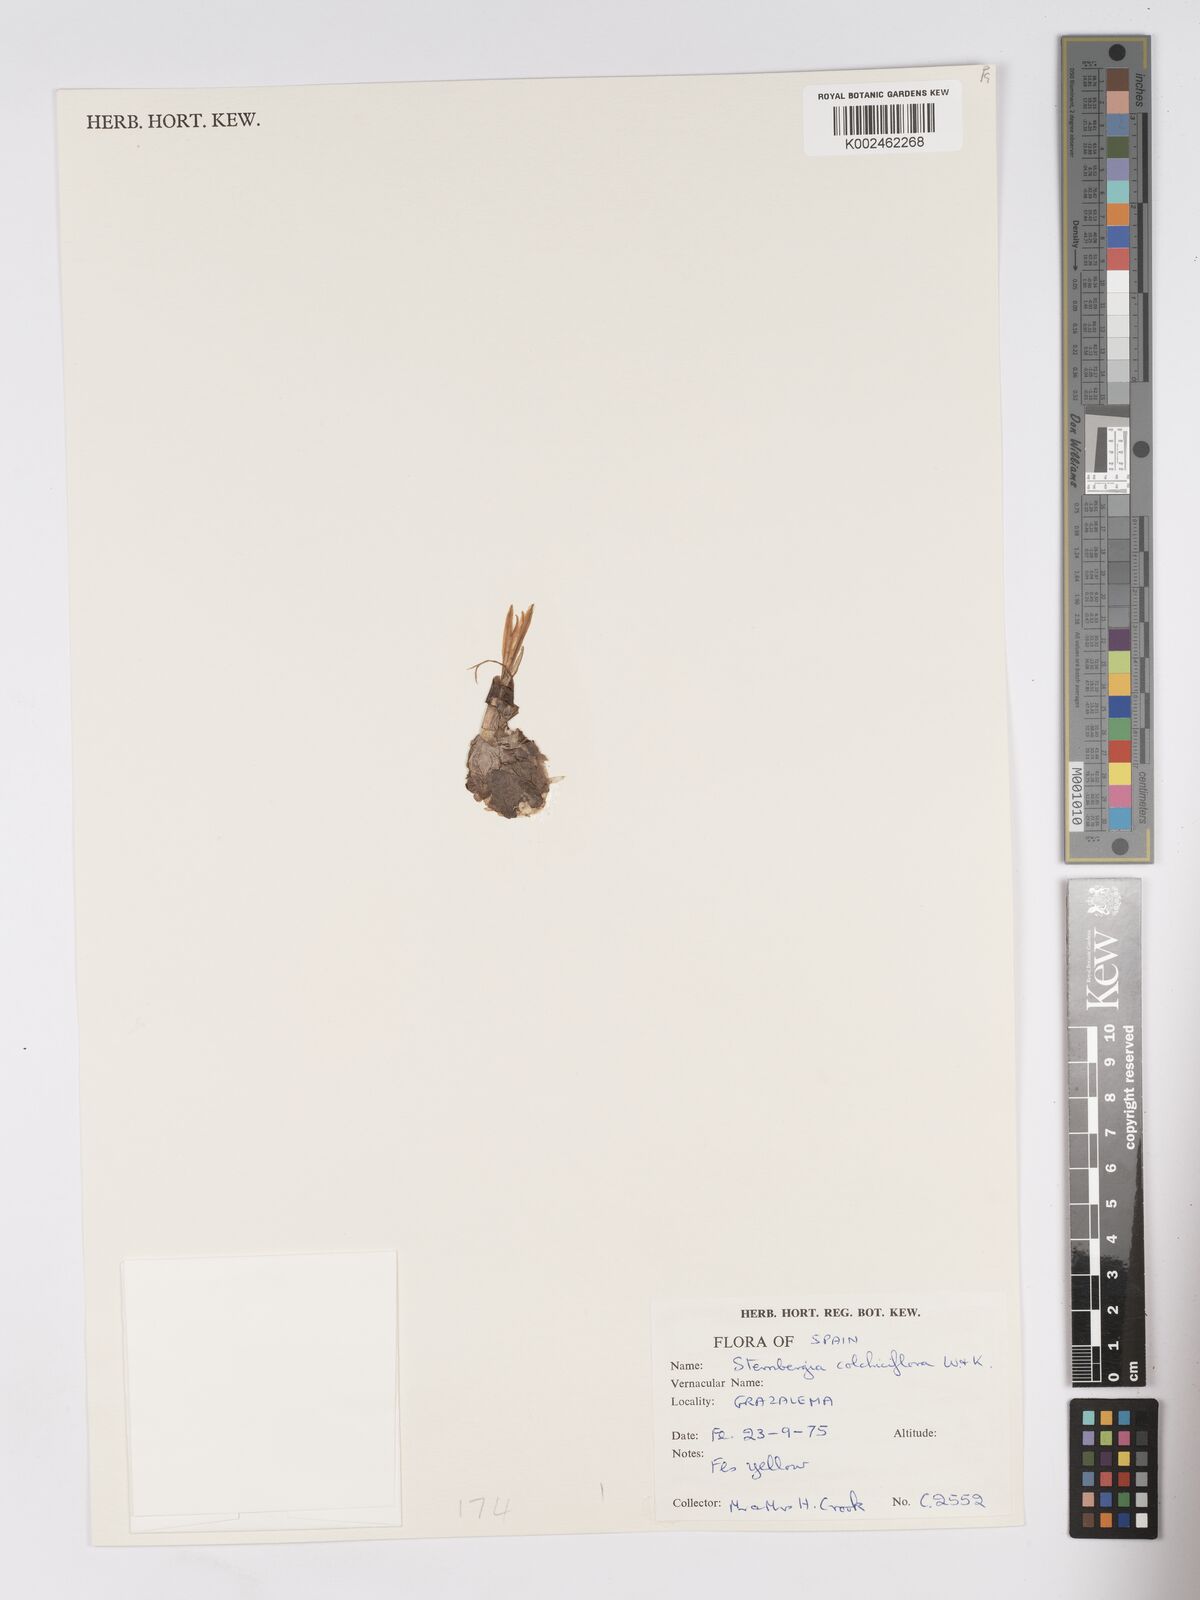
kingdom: Plantae
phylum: Tracheophyta
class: Liliopsida
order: Asparagales
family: Amaryllidaceae
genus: Sternbergia
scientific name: Sternbergia colchiciflora
